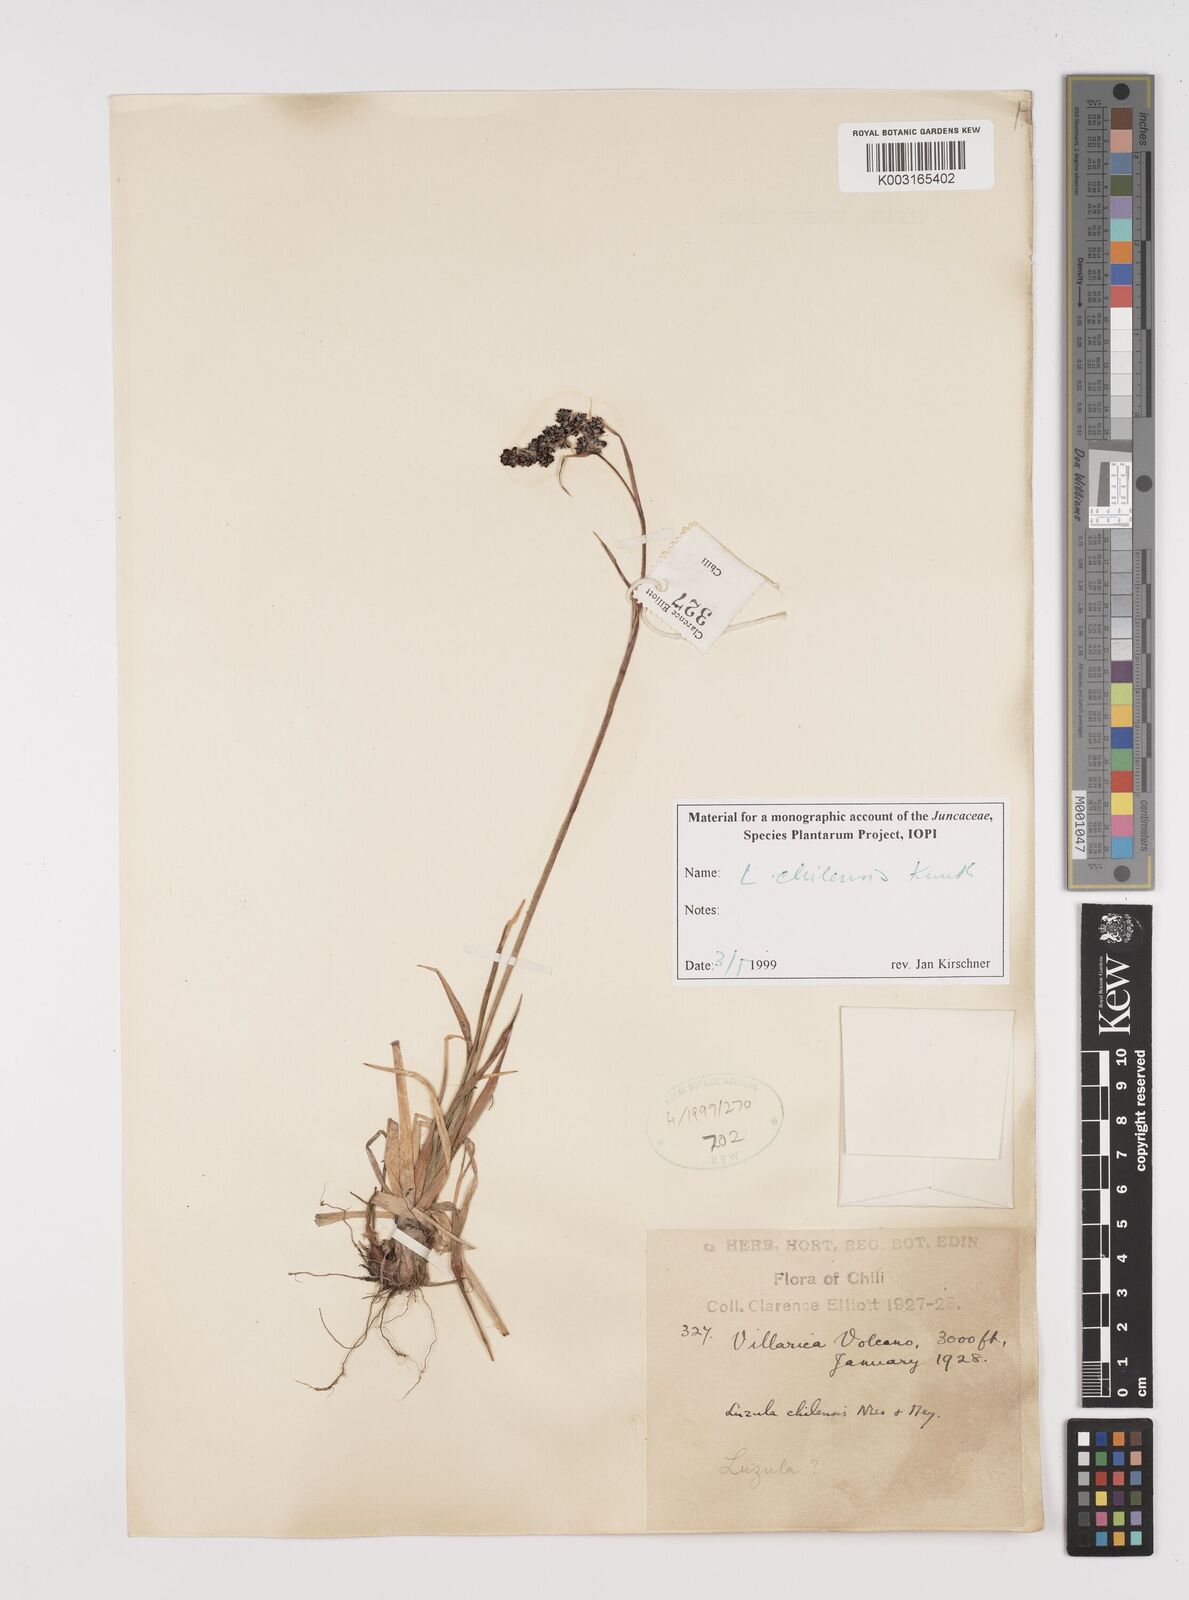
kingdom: Plantae
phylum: Tracheophyta
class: Liliopsida
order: Poales
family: Juncaceae
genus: Luzula
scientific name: Luzula chilensis
